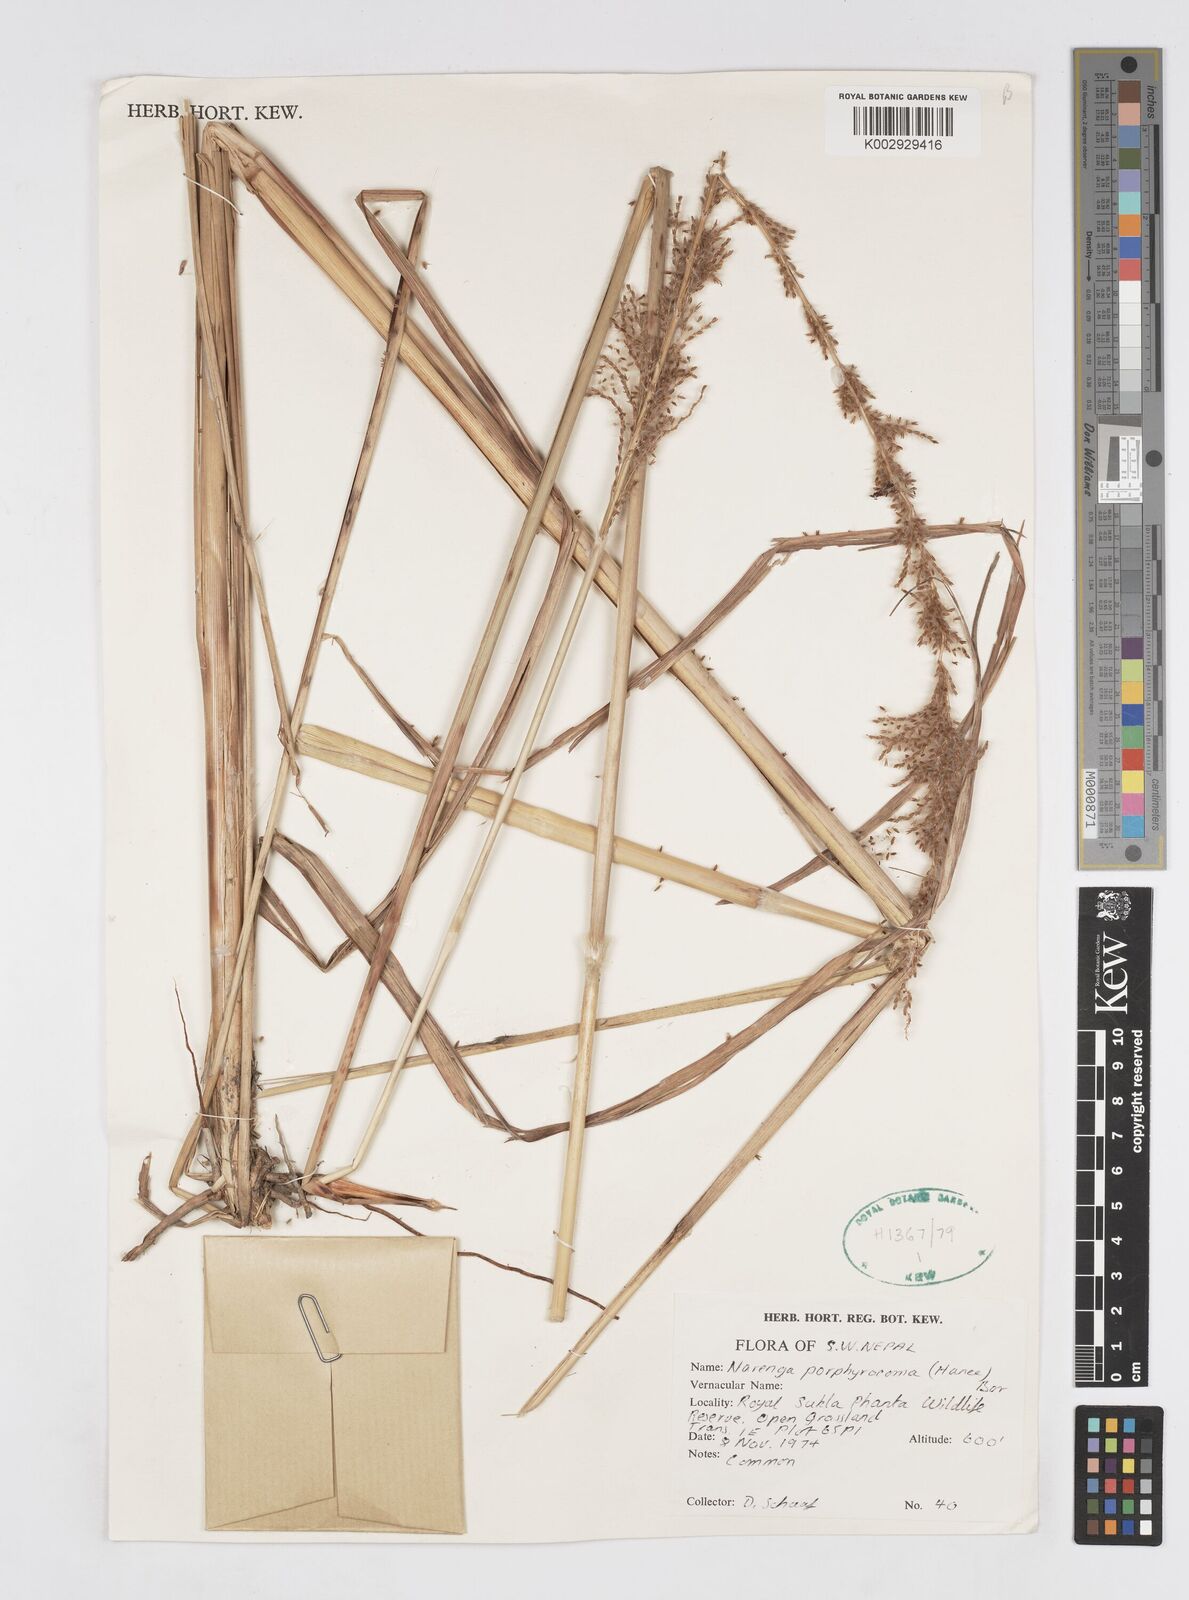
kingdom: Plantae
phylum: Tracheophyta
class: Liliopsida
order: Poales
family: Poaceae
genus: Narenga
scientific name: Narenga porphyrocoma
